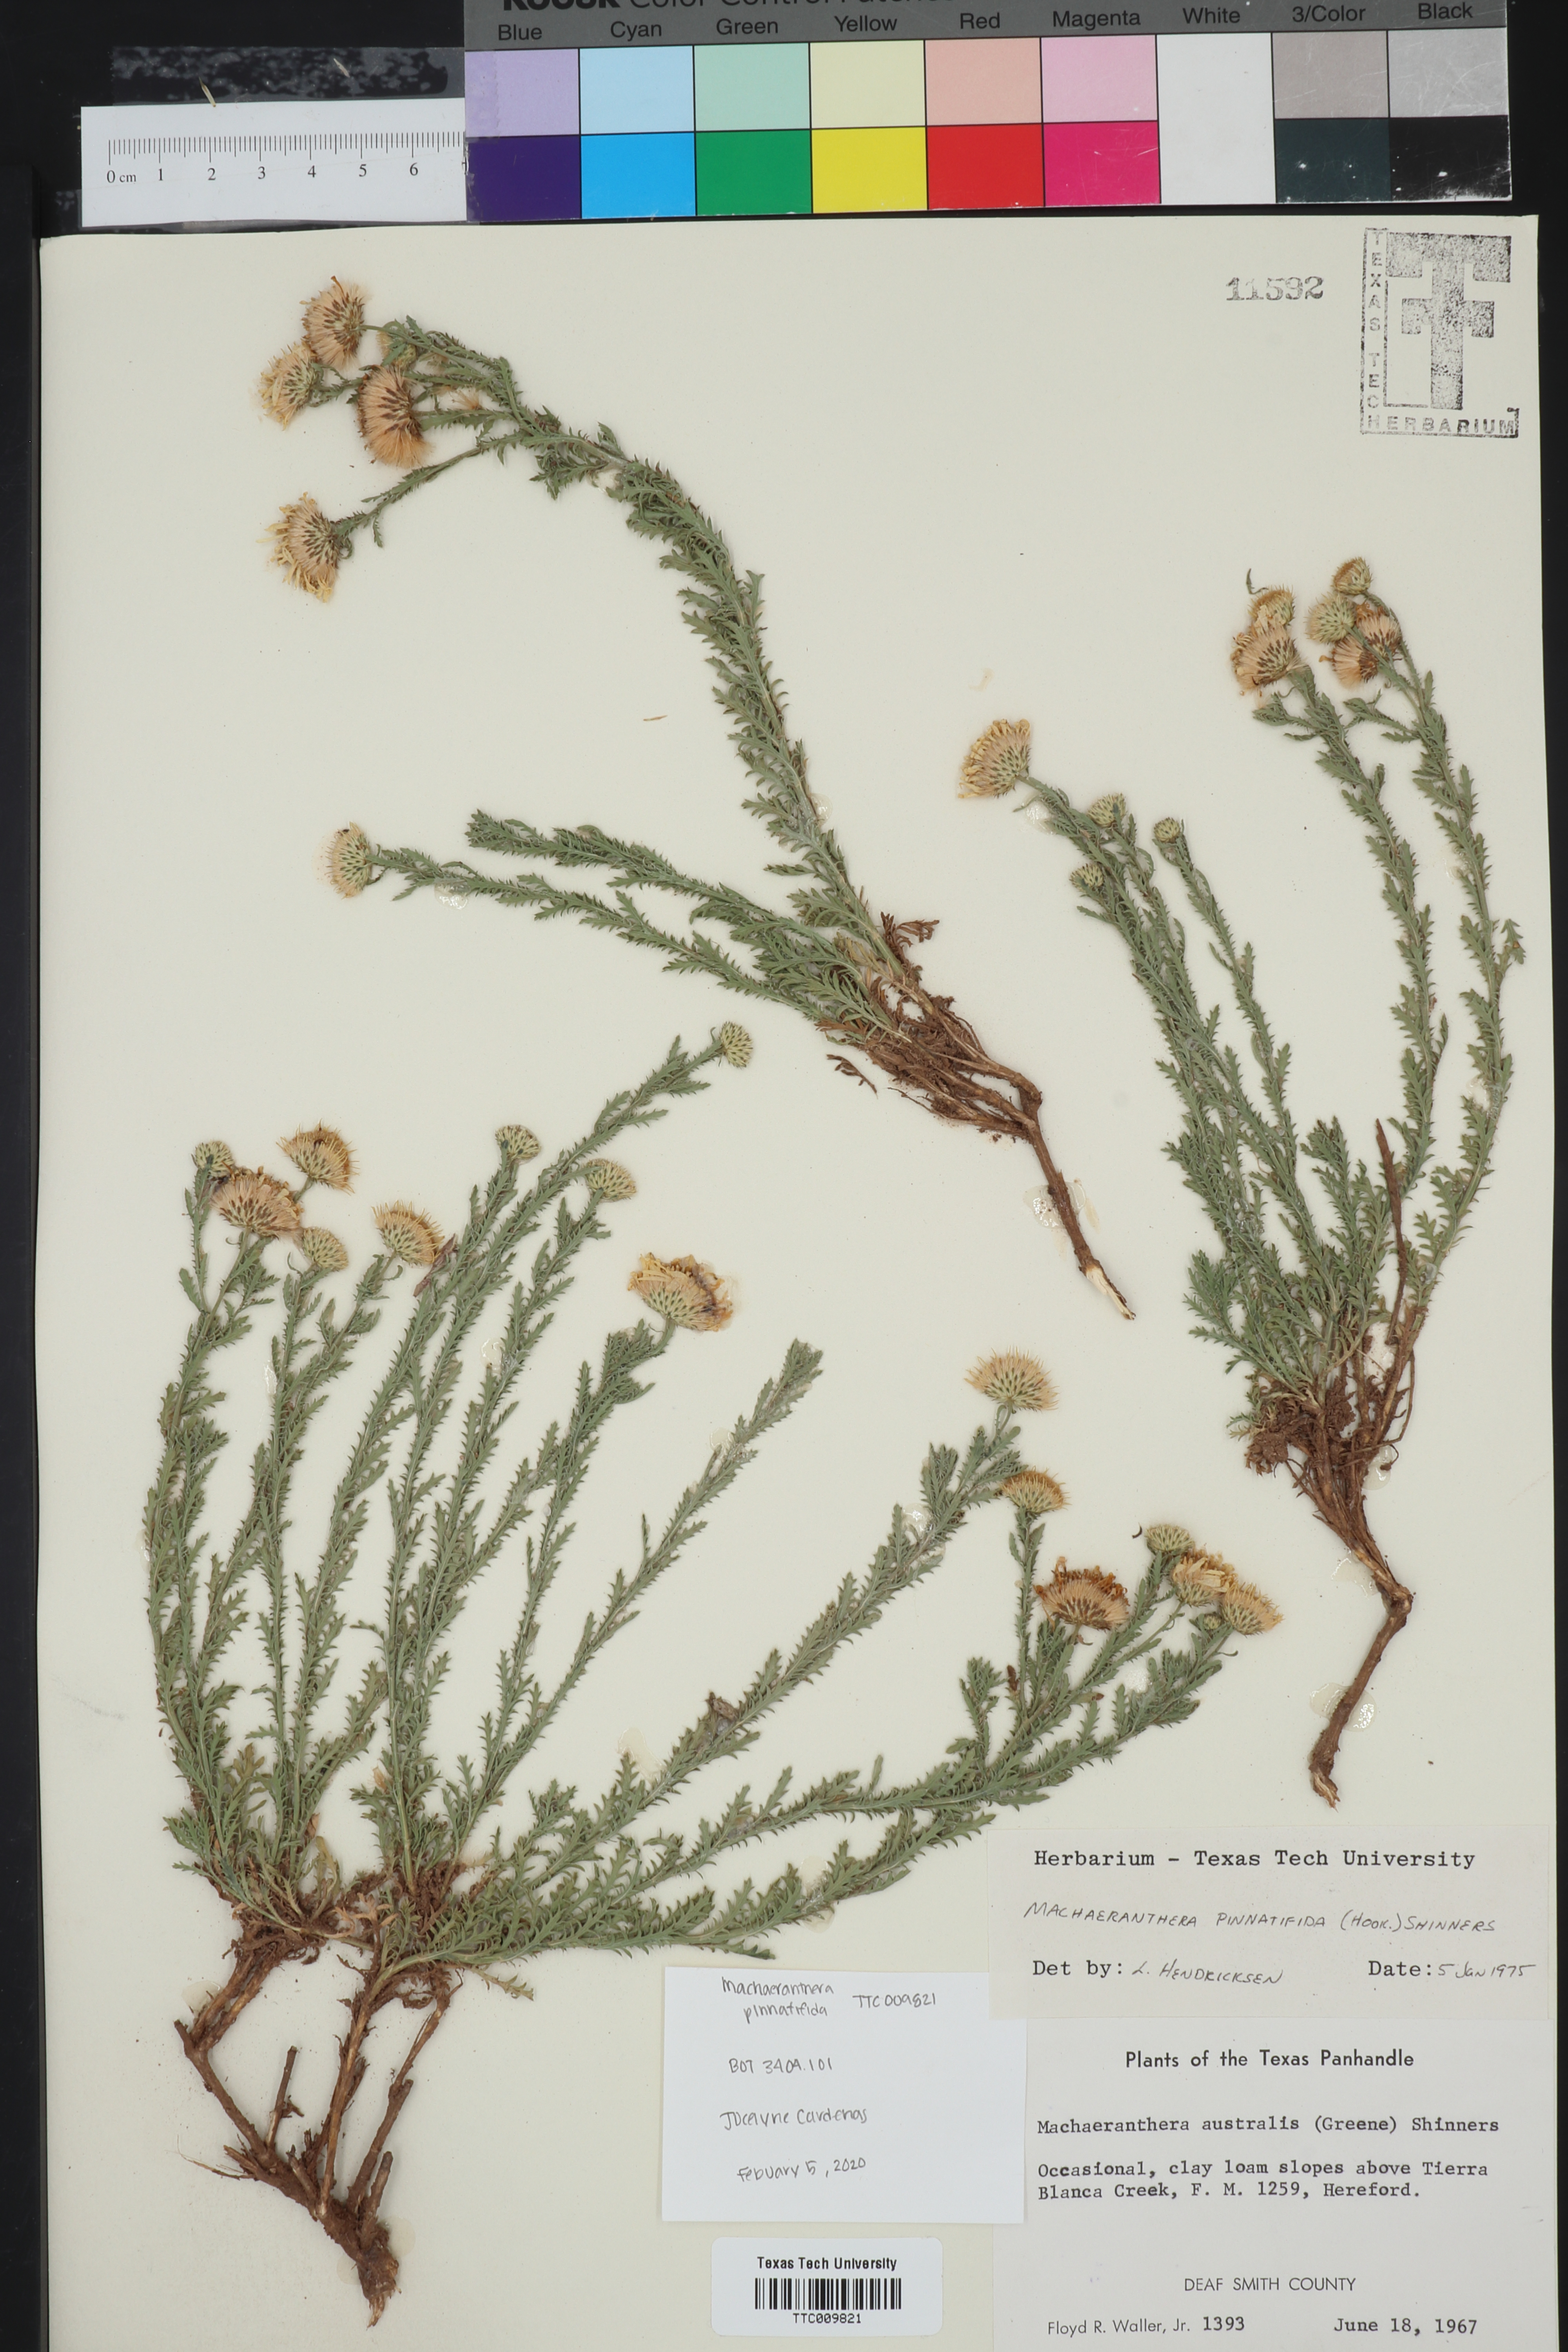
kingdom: Plantae
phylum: Tracheophyta
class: Magnoliopsida
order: Asterales
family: Asteraceae
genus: Xanthisma
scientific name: Xanthisma spinulosum
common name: Spiny goldenweed
